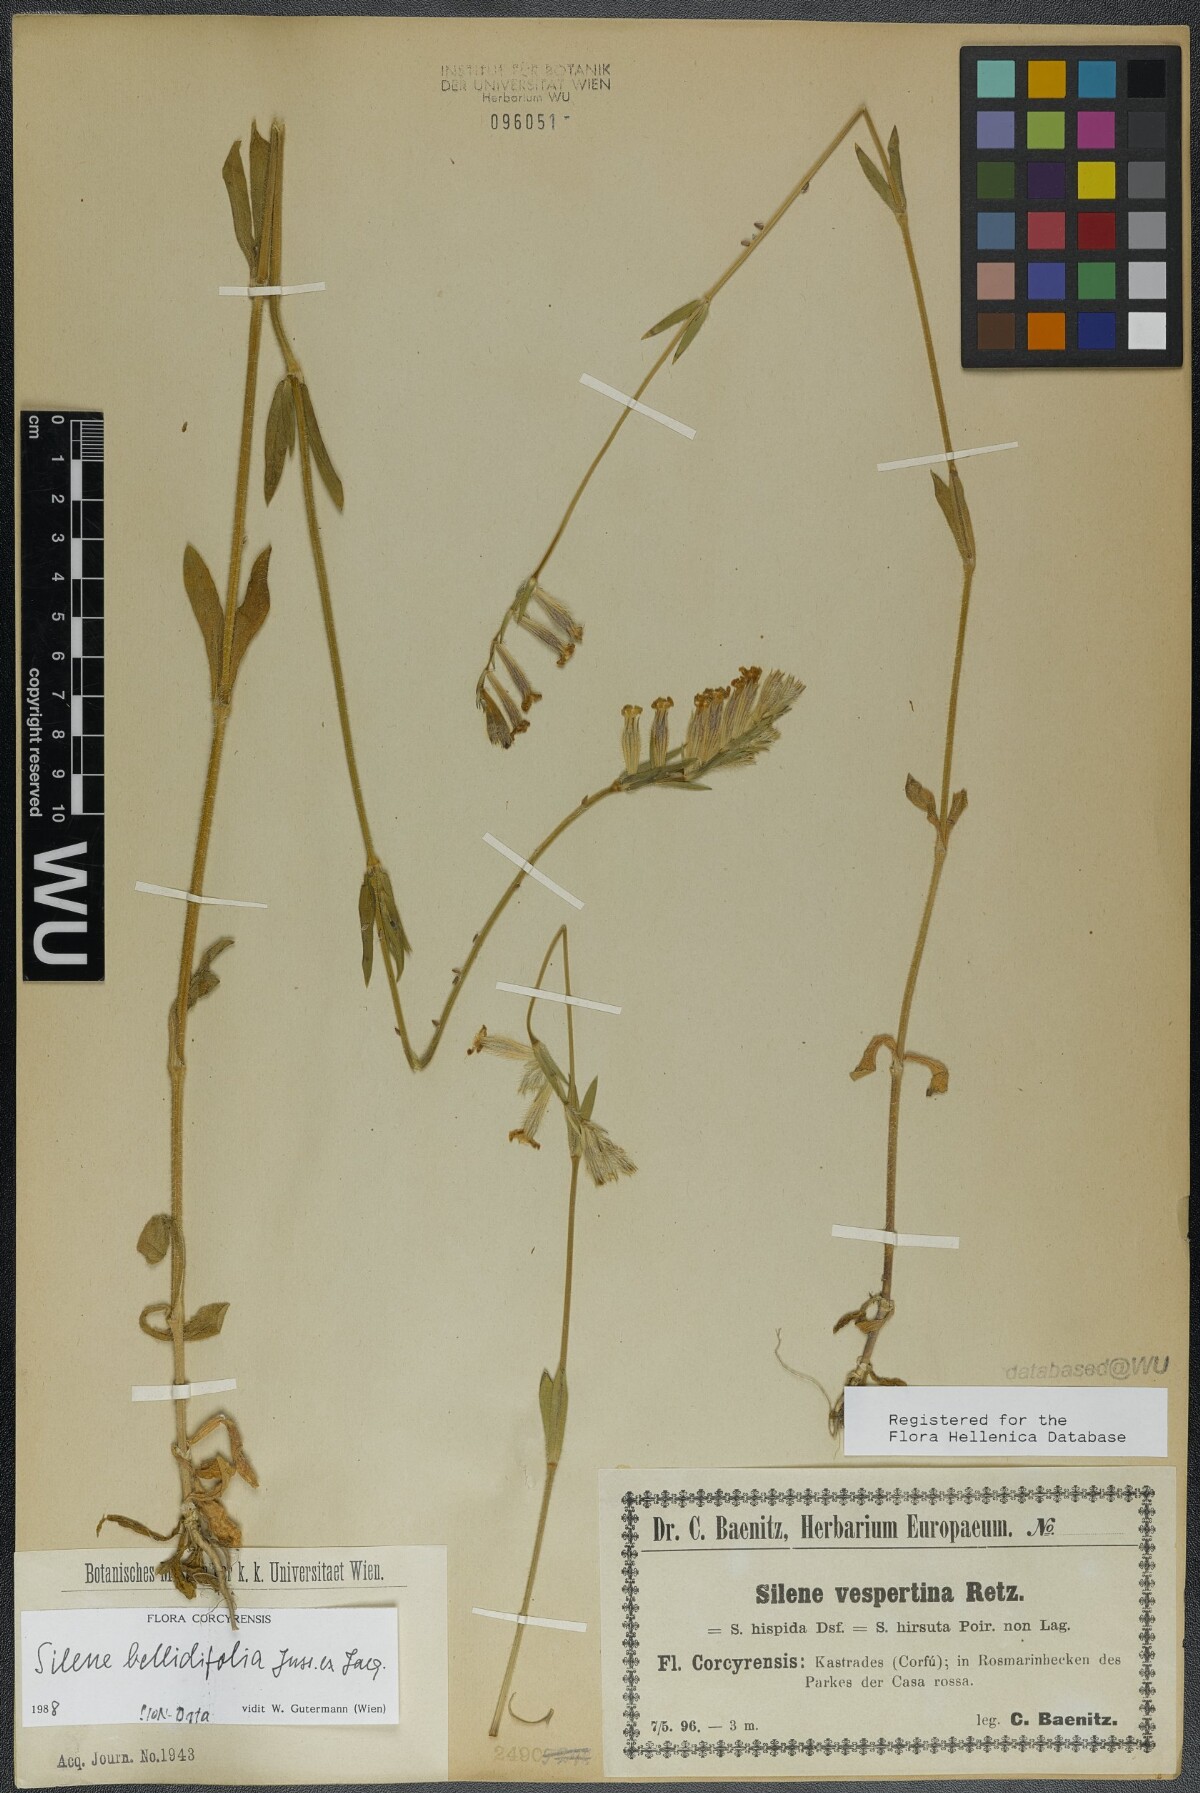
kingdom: Plantae
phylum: Tracheophyta
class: Magnoliopsida
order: Caryophyllales
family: Caryophyllaceae
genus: Silene
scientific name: Silene bellidifolia
